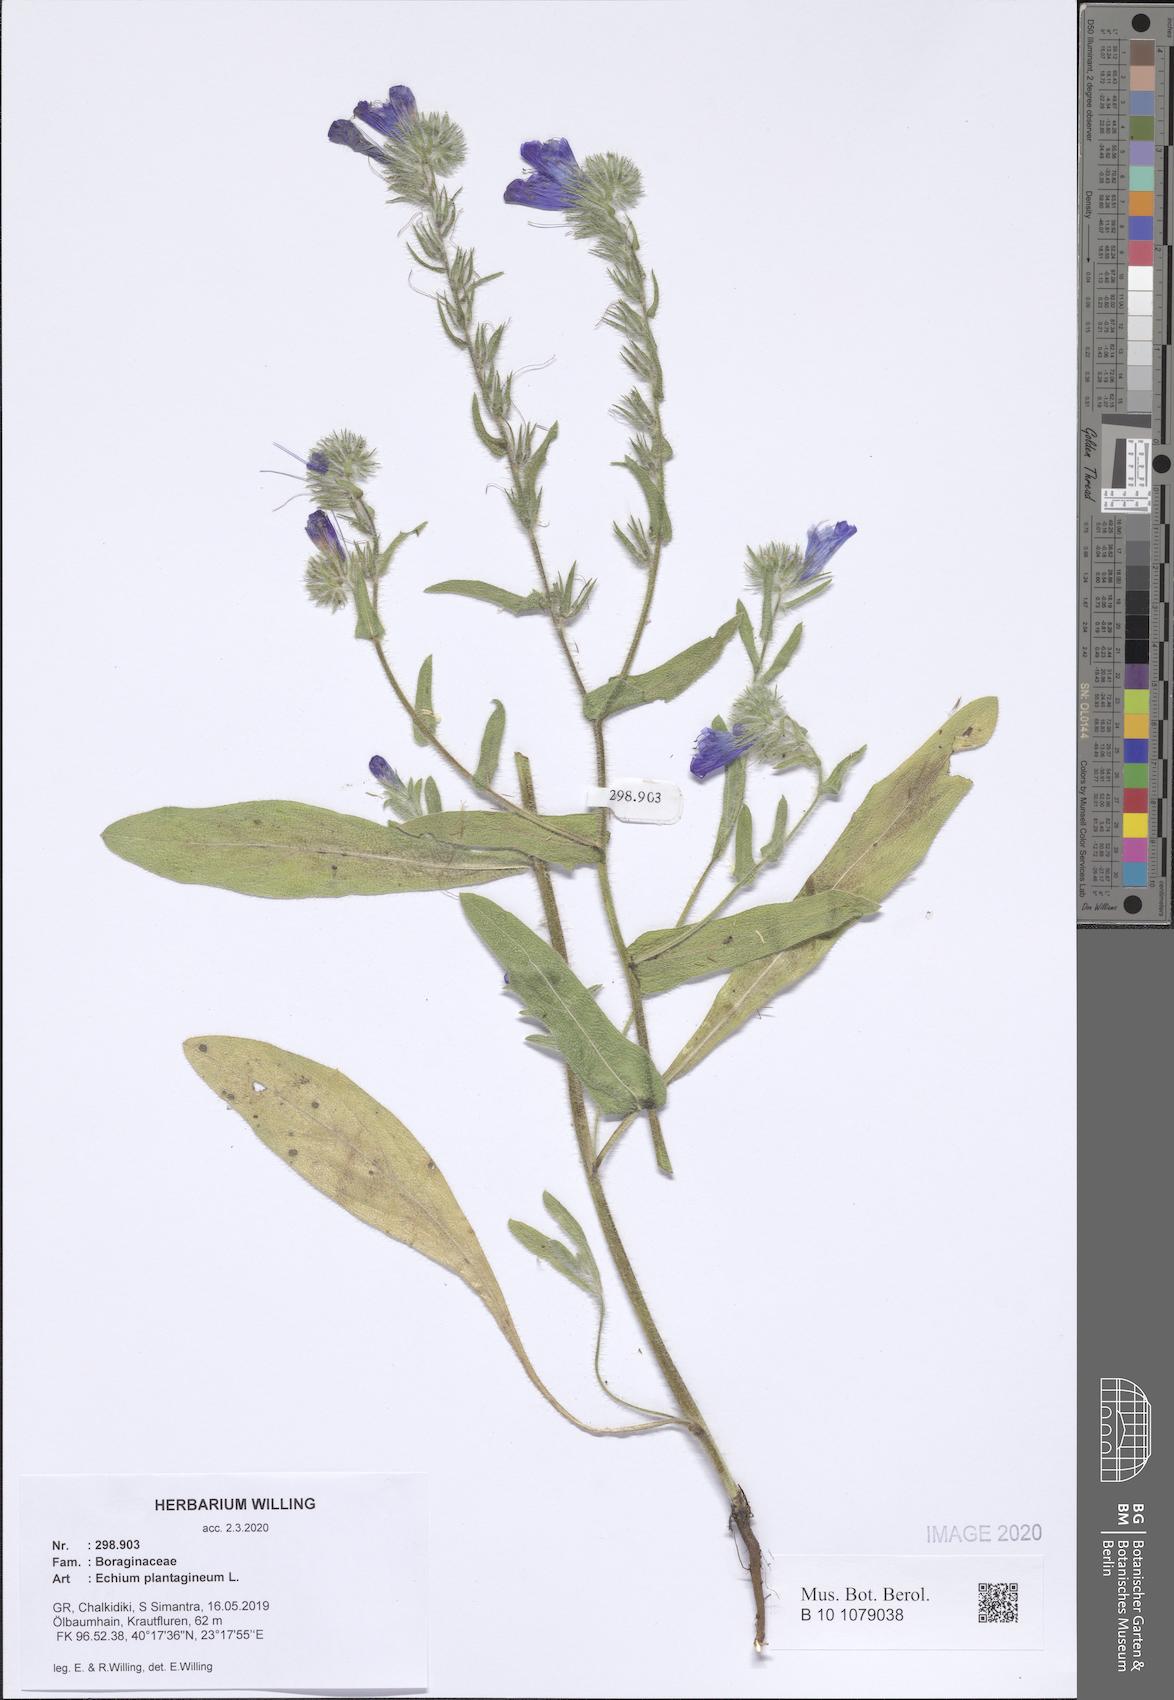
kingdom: Plantae
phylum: Tracheophyta
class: Magnoliopsida
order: Boraginales
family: Boraginaceae
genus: Echium
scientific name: Echium plantagineum
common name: Purple viper's-bugloss
